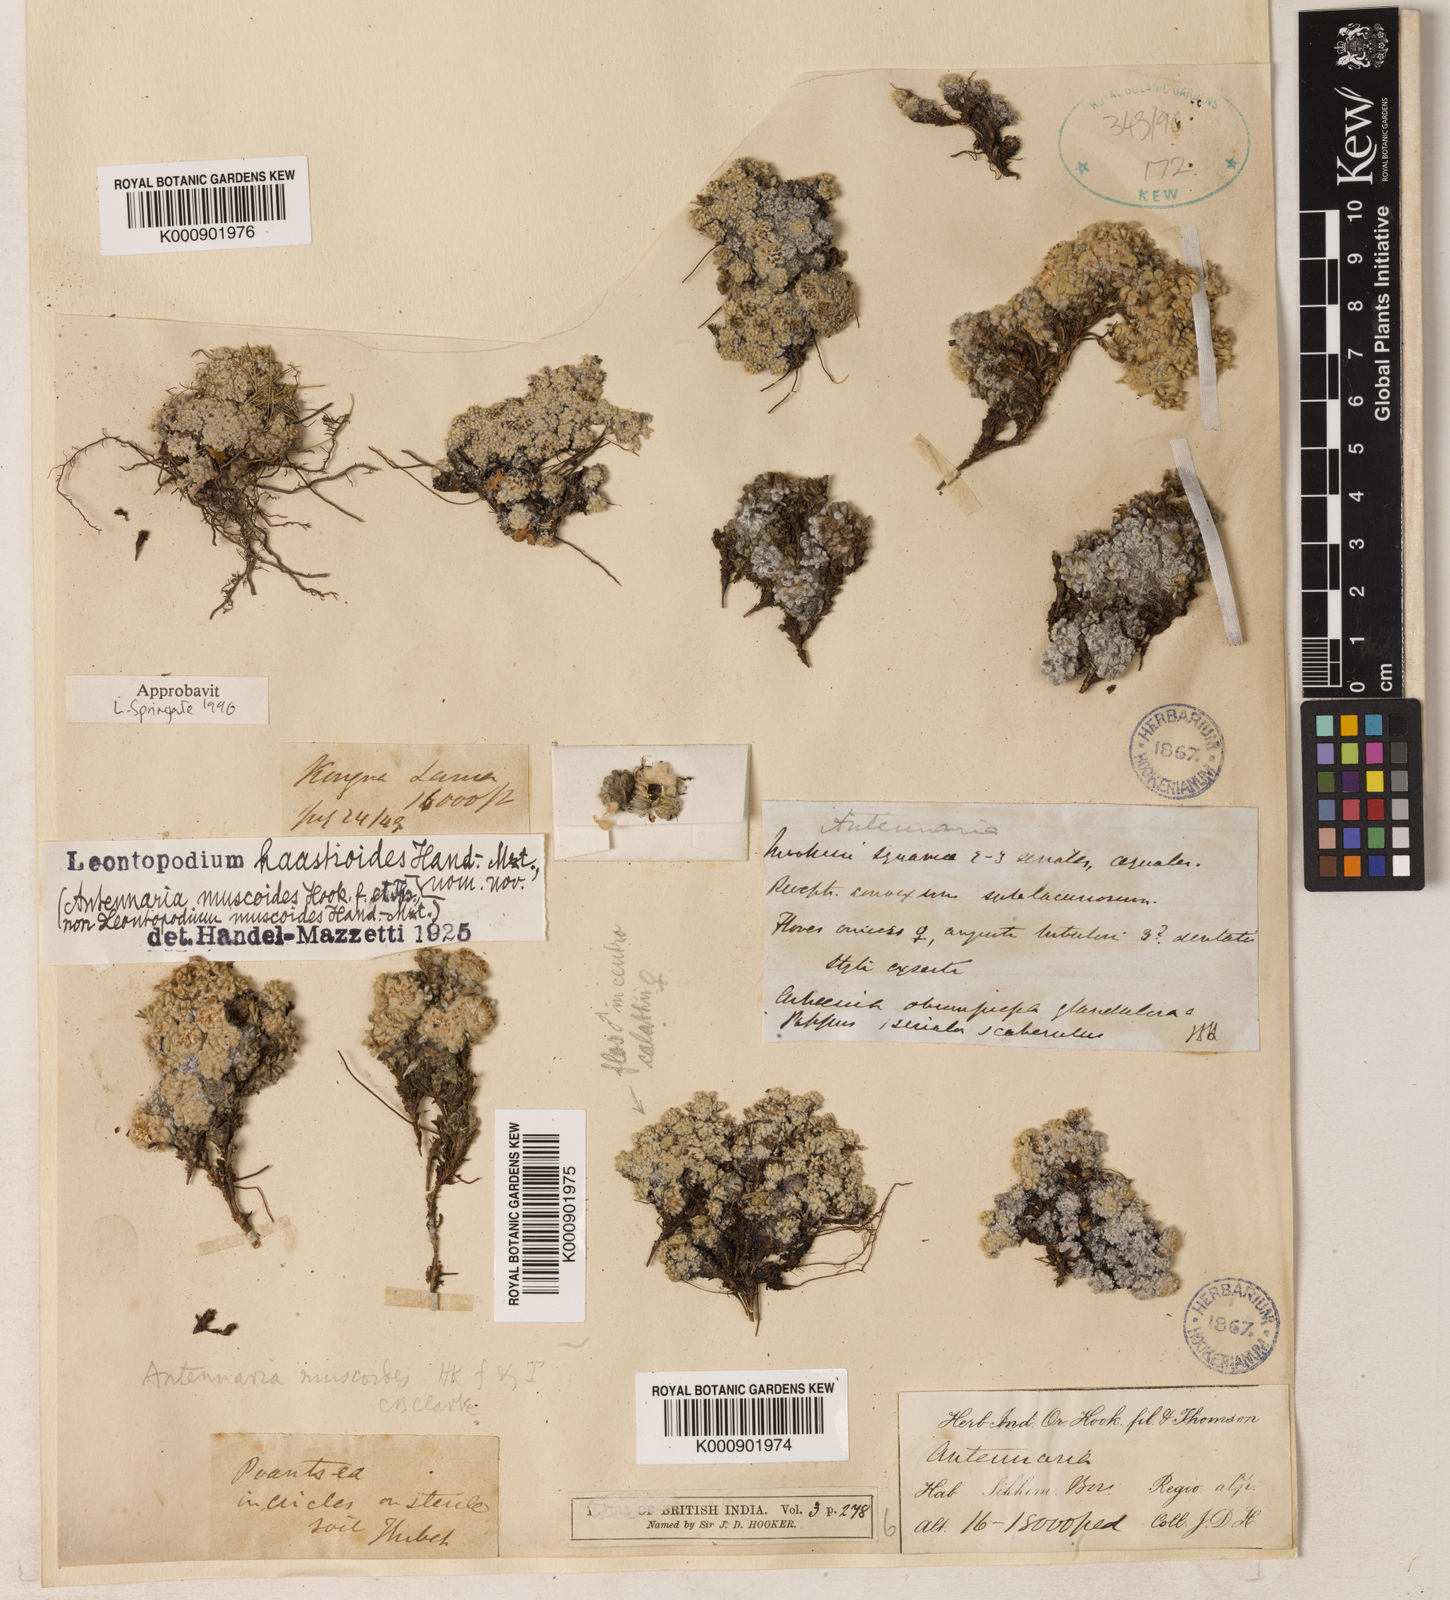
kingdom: Plantae
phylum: Tracheophyta
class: Magnoliopsida
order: Asterales
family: Asteraceae
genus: Leontopodium
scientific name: Leontopodium haastioides
